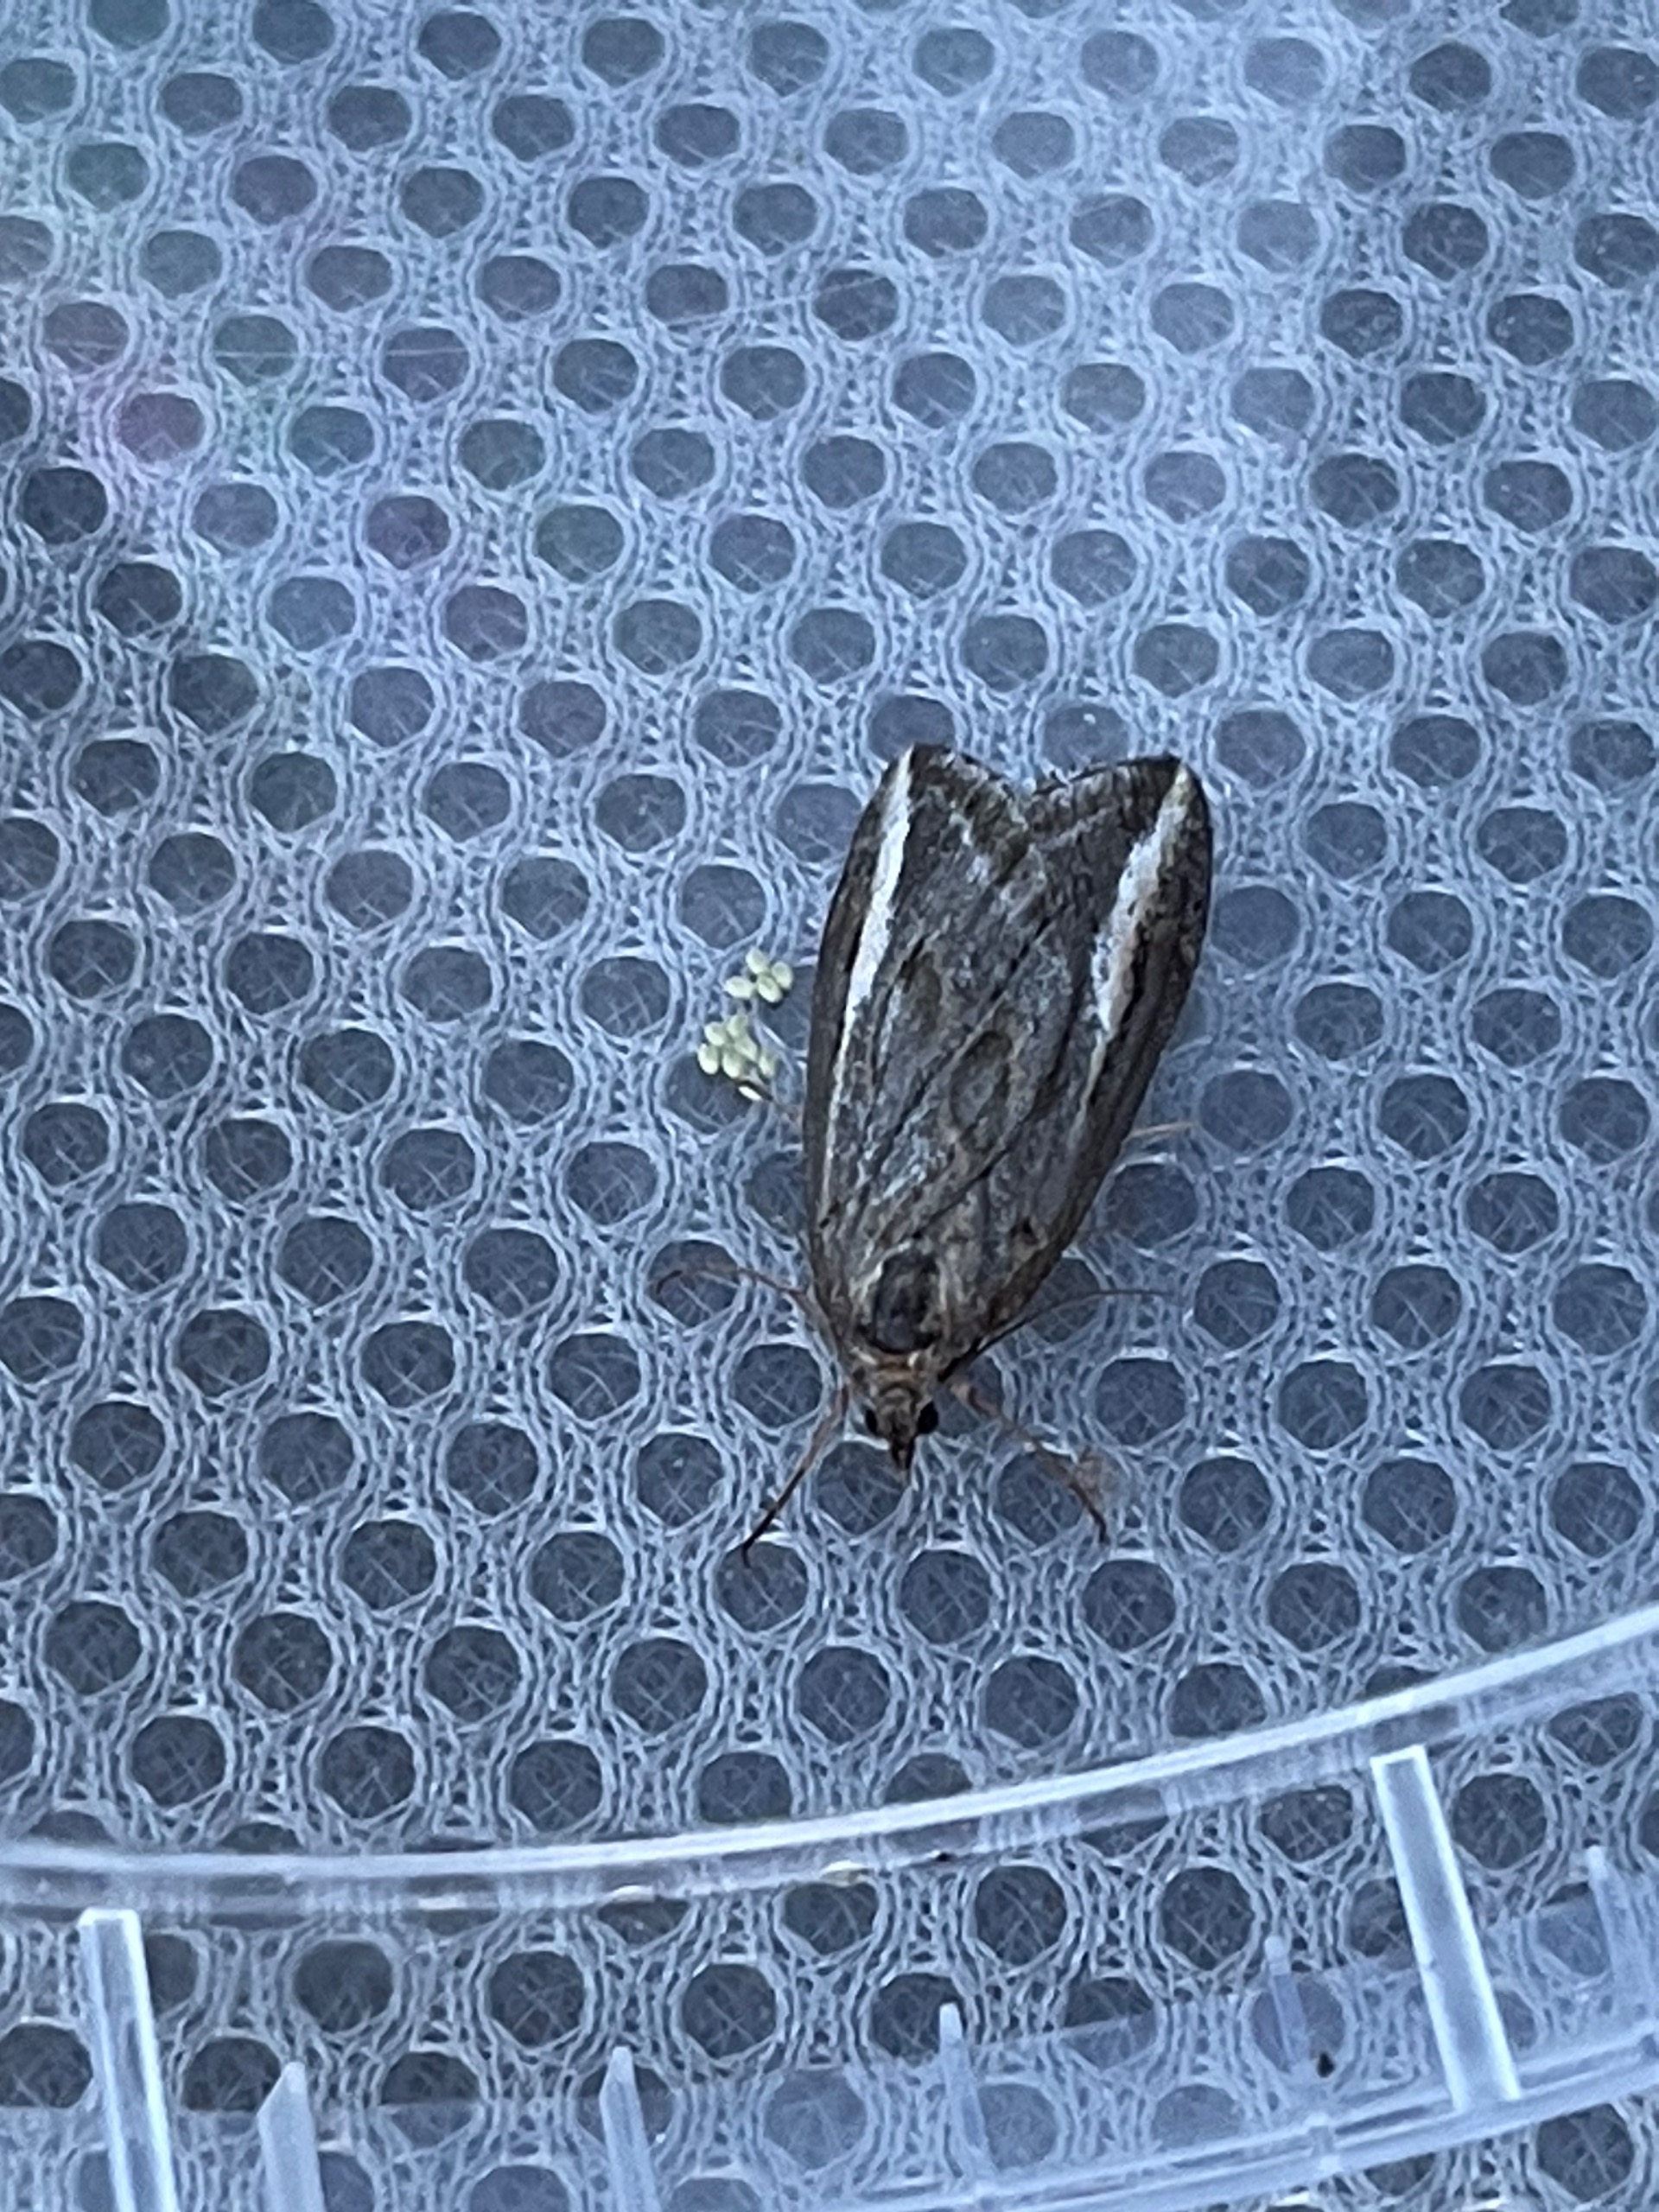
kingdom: Animalia
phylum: Arthropoda
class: Insecta
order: Lepidoptera
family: Geometridae
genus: Chesias
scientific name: Chesias legatella
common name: Stor gyvelmåler
